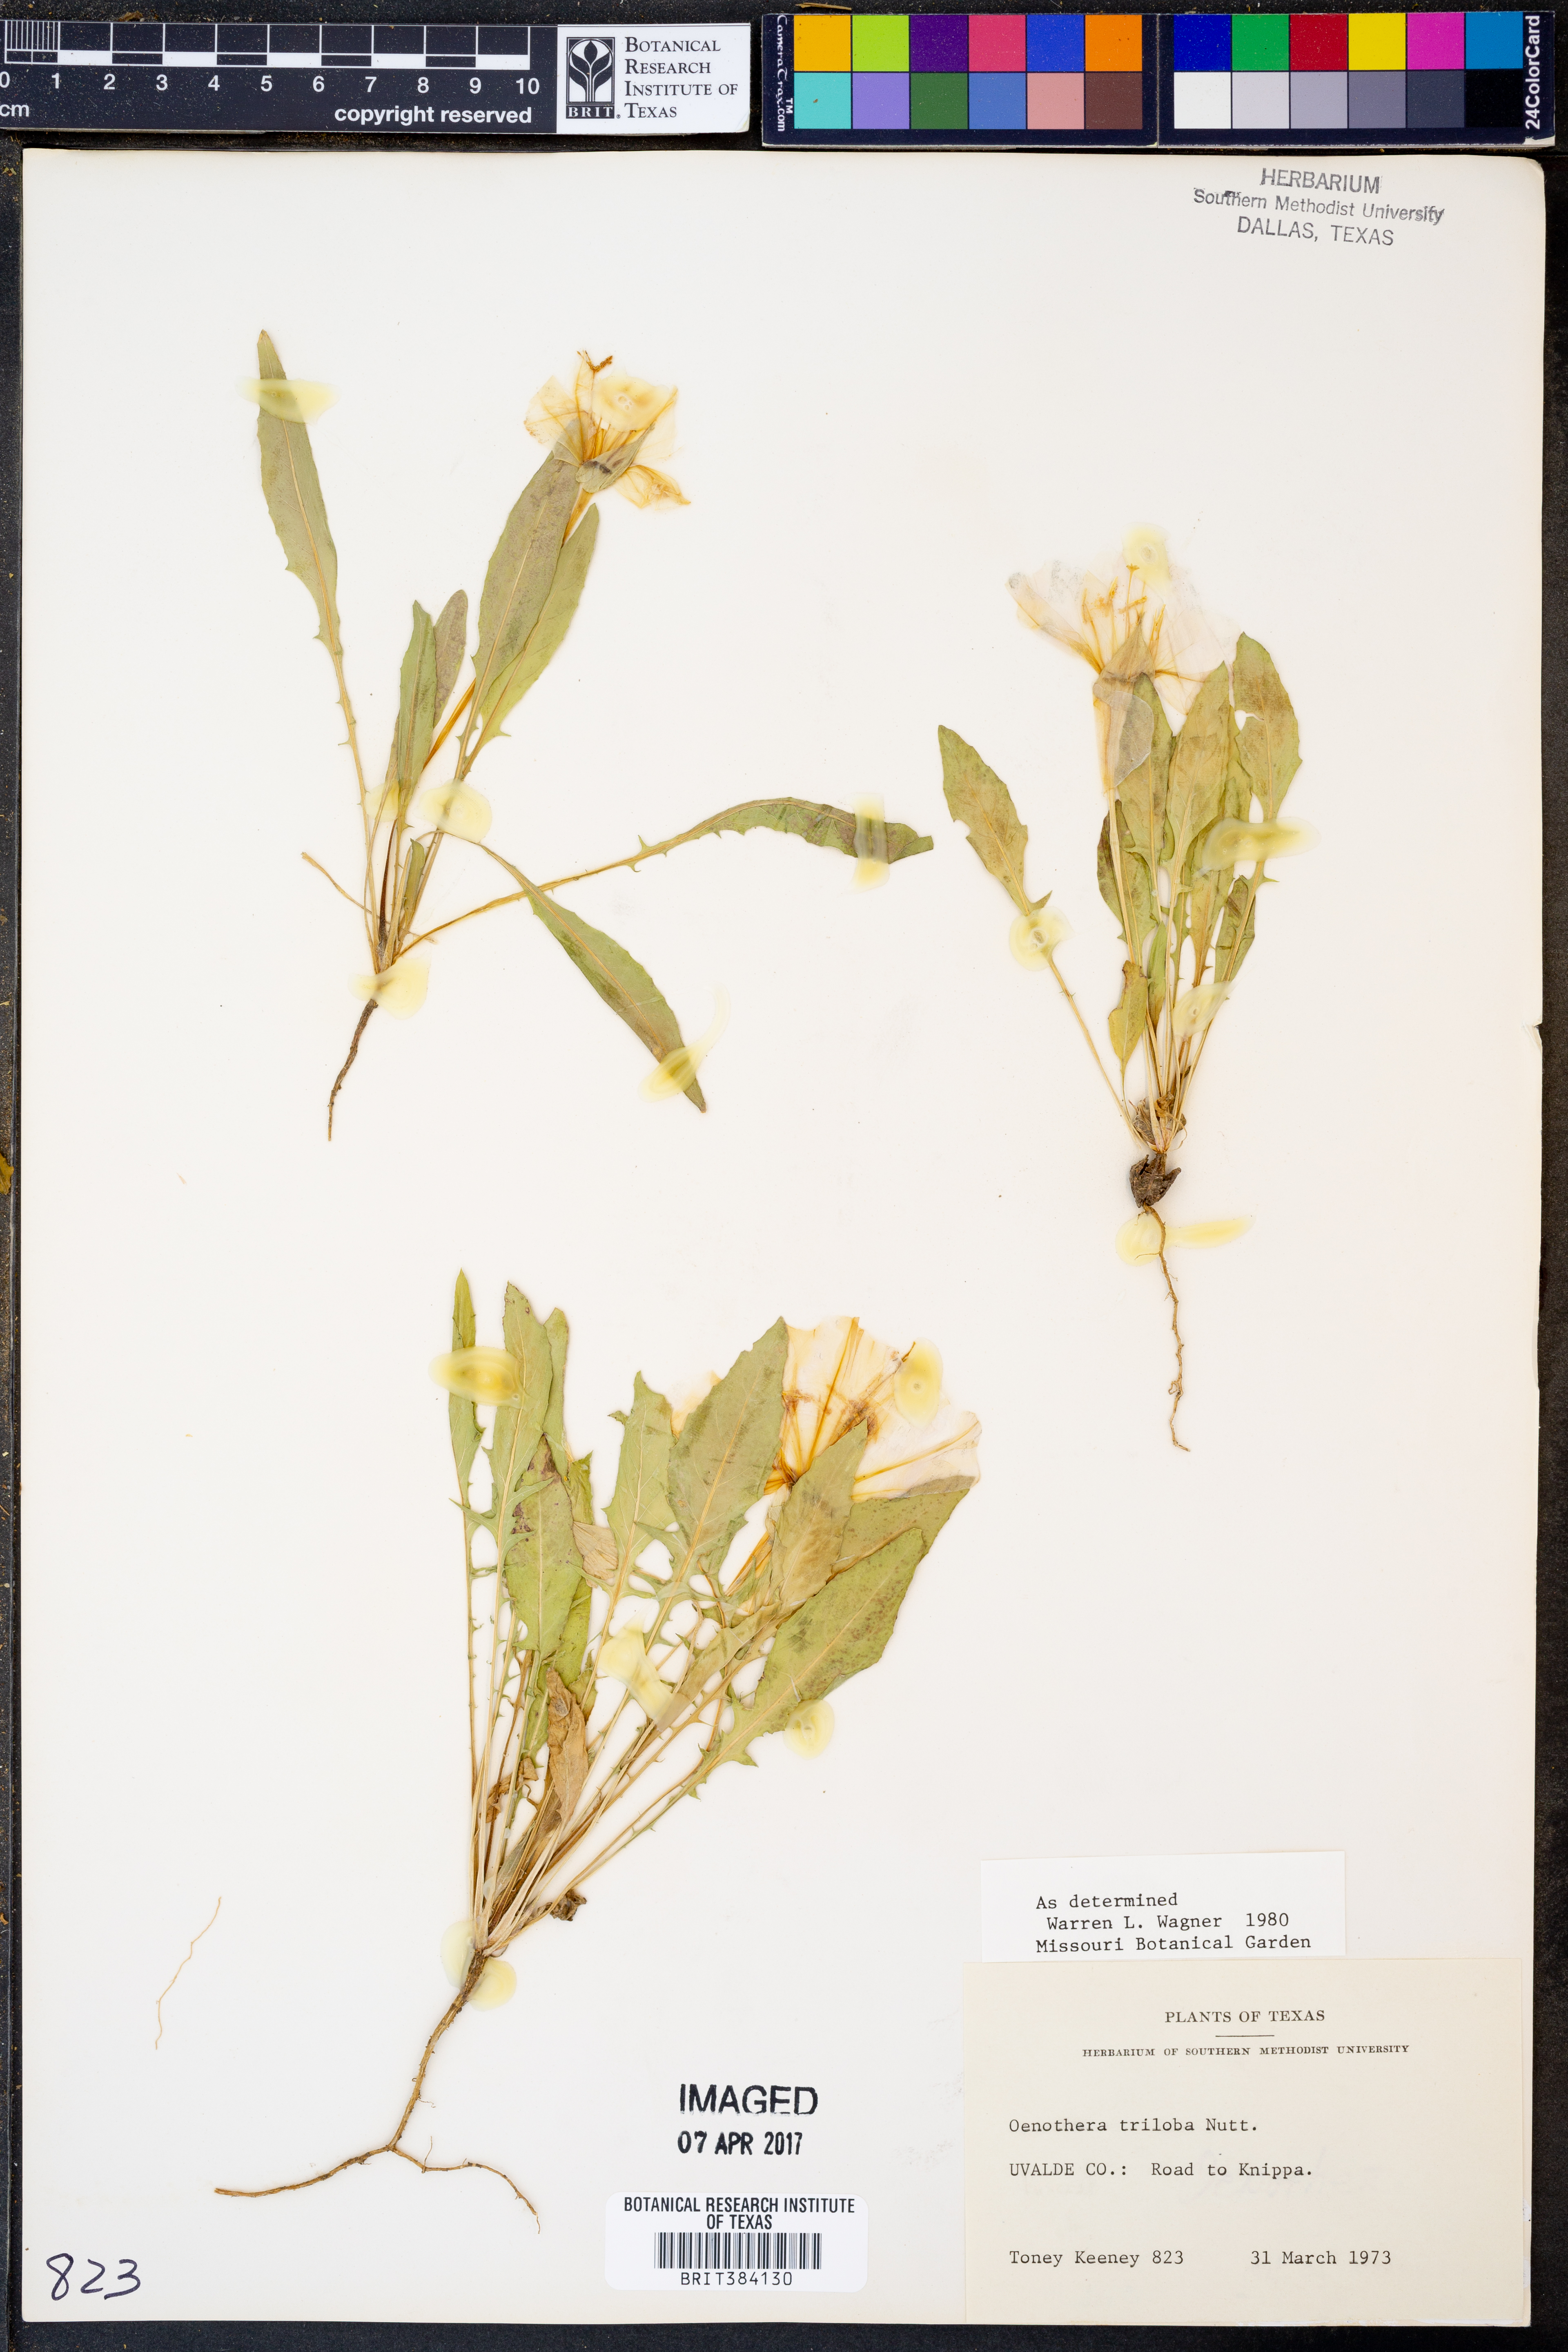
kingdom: Plantae
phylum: Tracheophyta
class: Magnoliopsida
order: Myrtales
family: Onagraceae
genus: Oenothera
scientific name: Oenothera triloba
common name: Sessile evening-primrose
